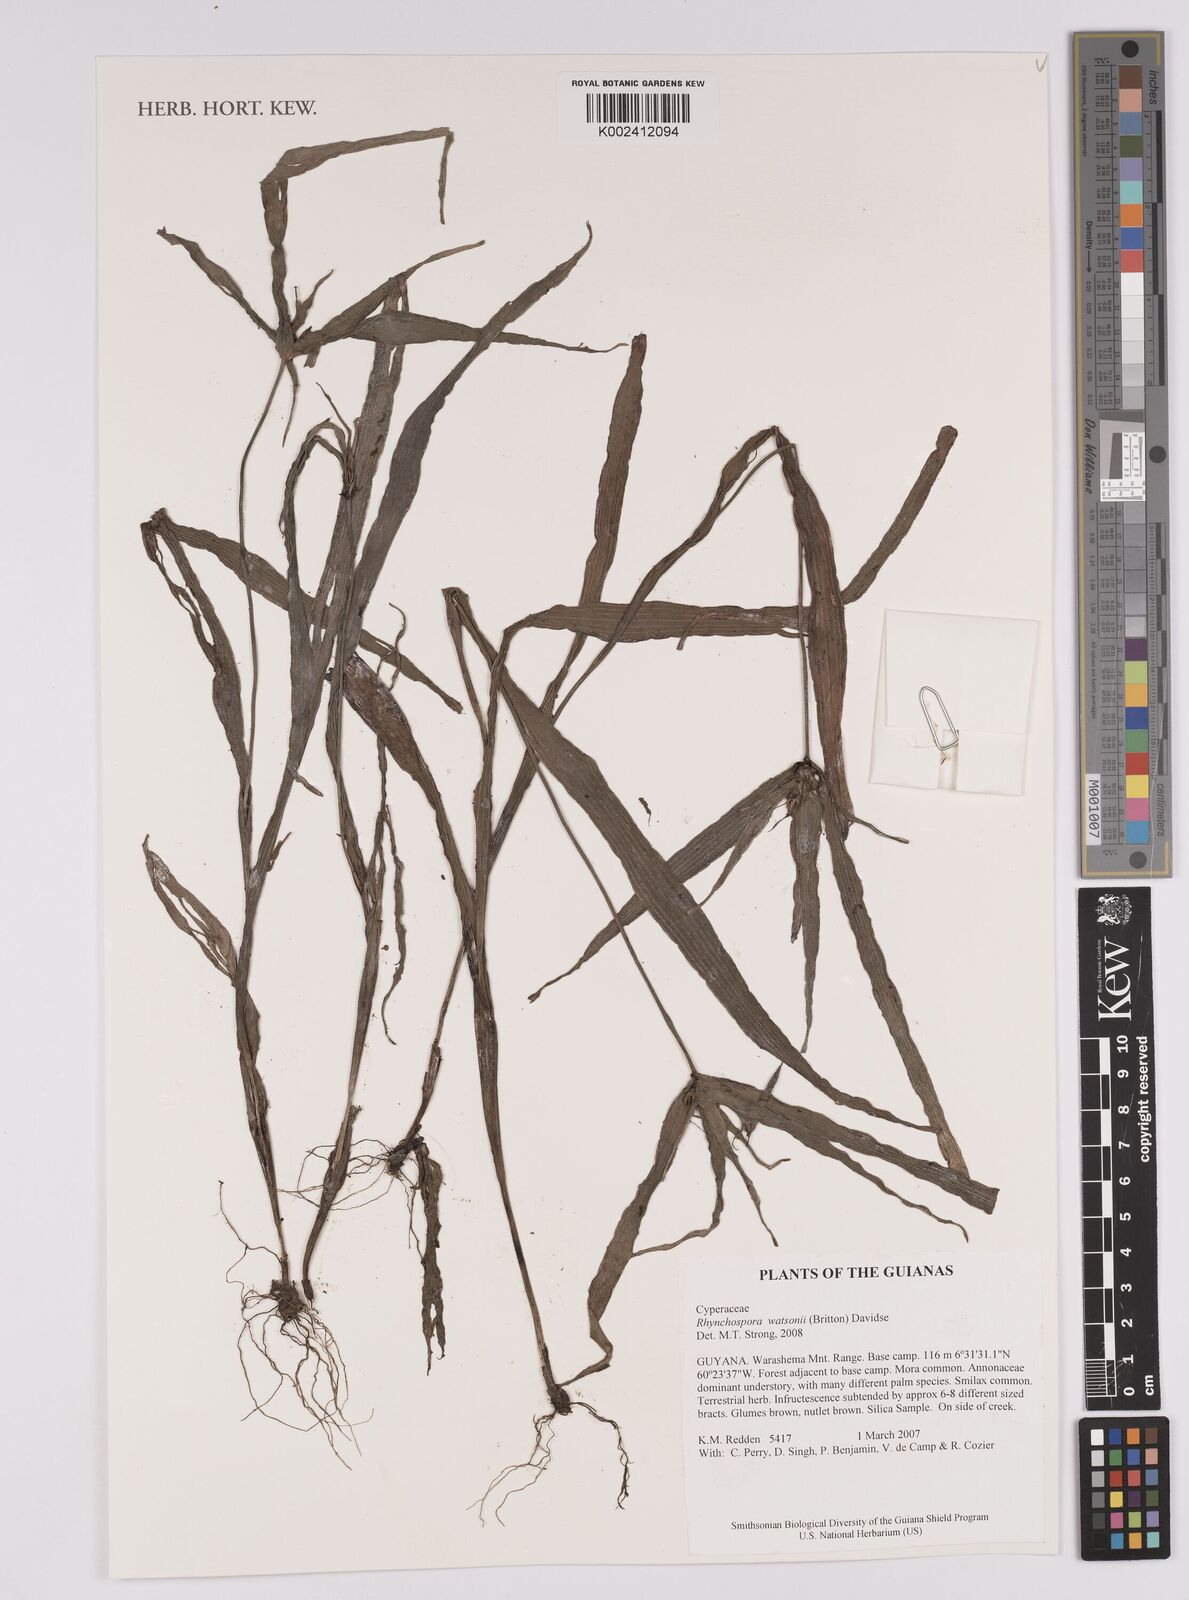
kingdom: Plantae
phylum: Tracheophyta
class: Liliopsida
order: Poales
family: Cyperaceae
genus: Rhynchospora
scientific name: Rhynchospora watsonii
